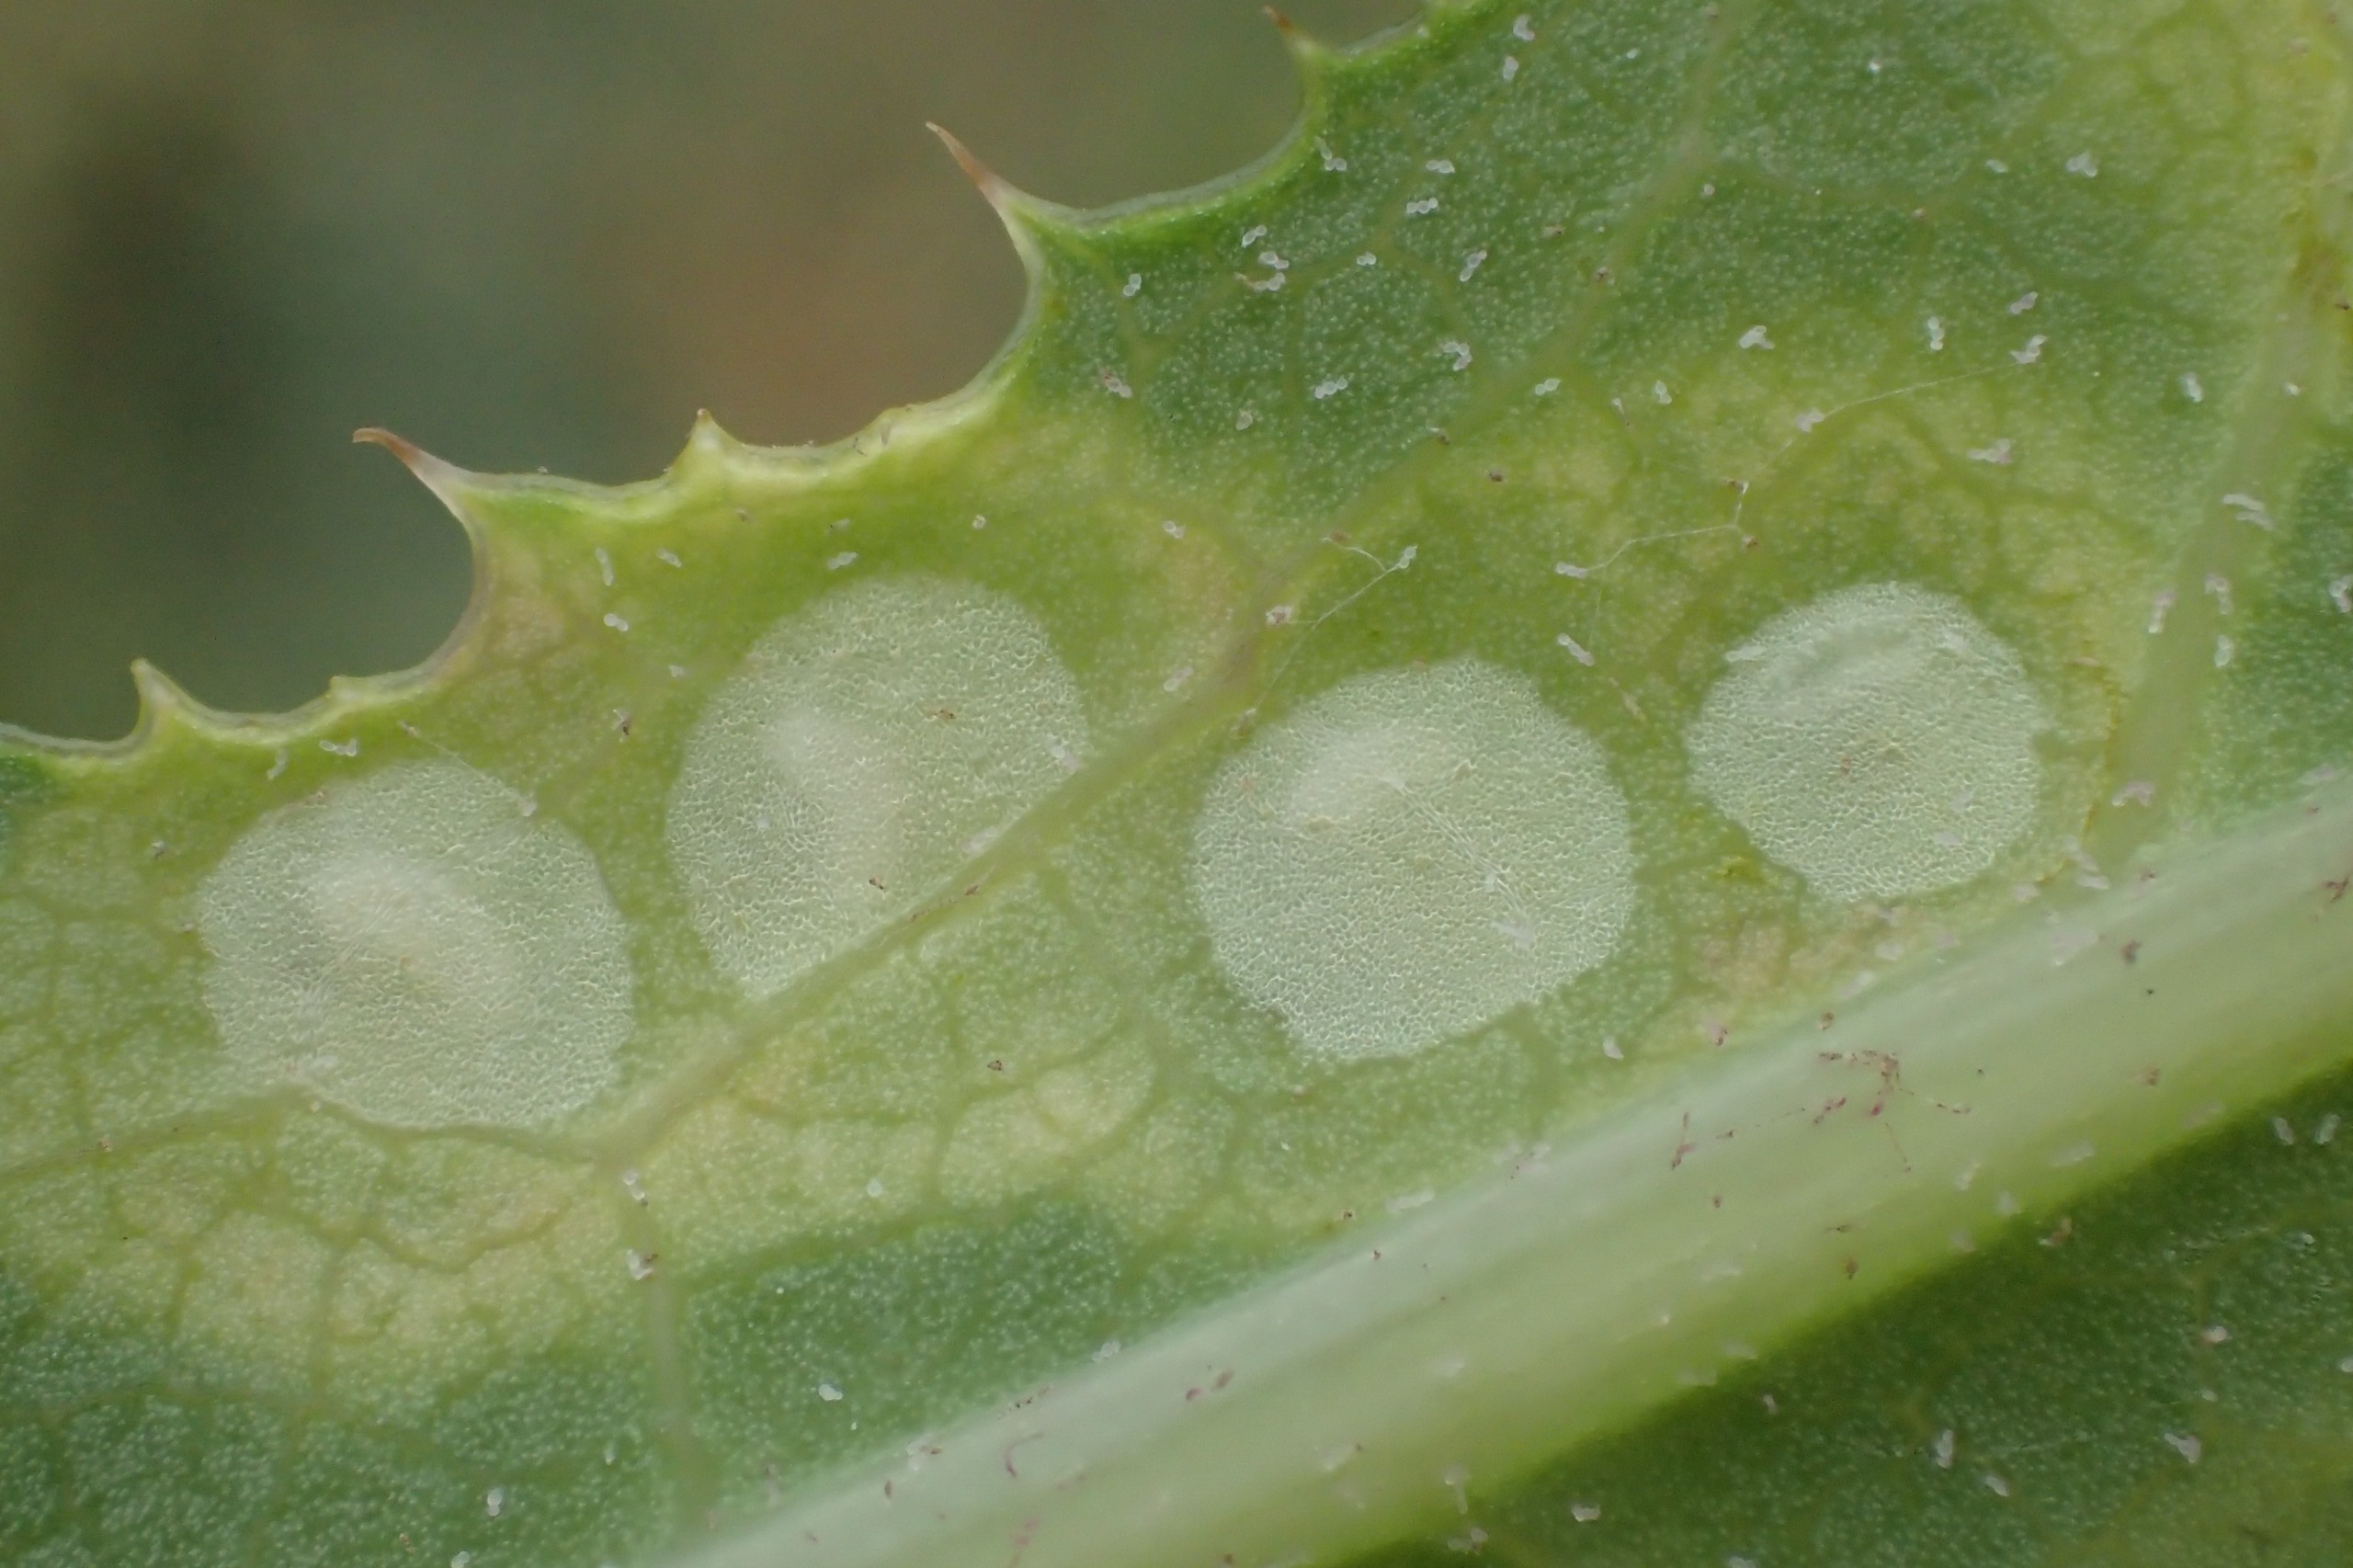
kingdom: Animalia
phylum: Arthropoda
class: Insecta
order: Diptera
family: Cecidomyiidae
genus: Cystiphora
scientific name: Cystiphora sonchi
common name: Svineblæregalmyg
